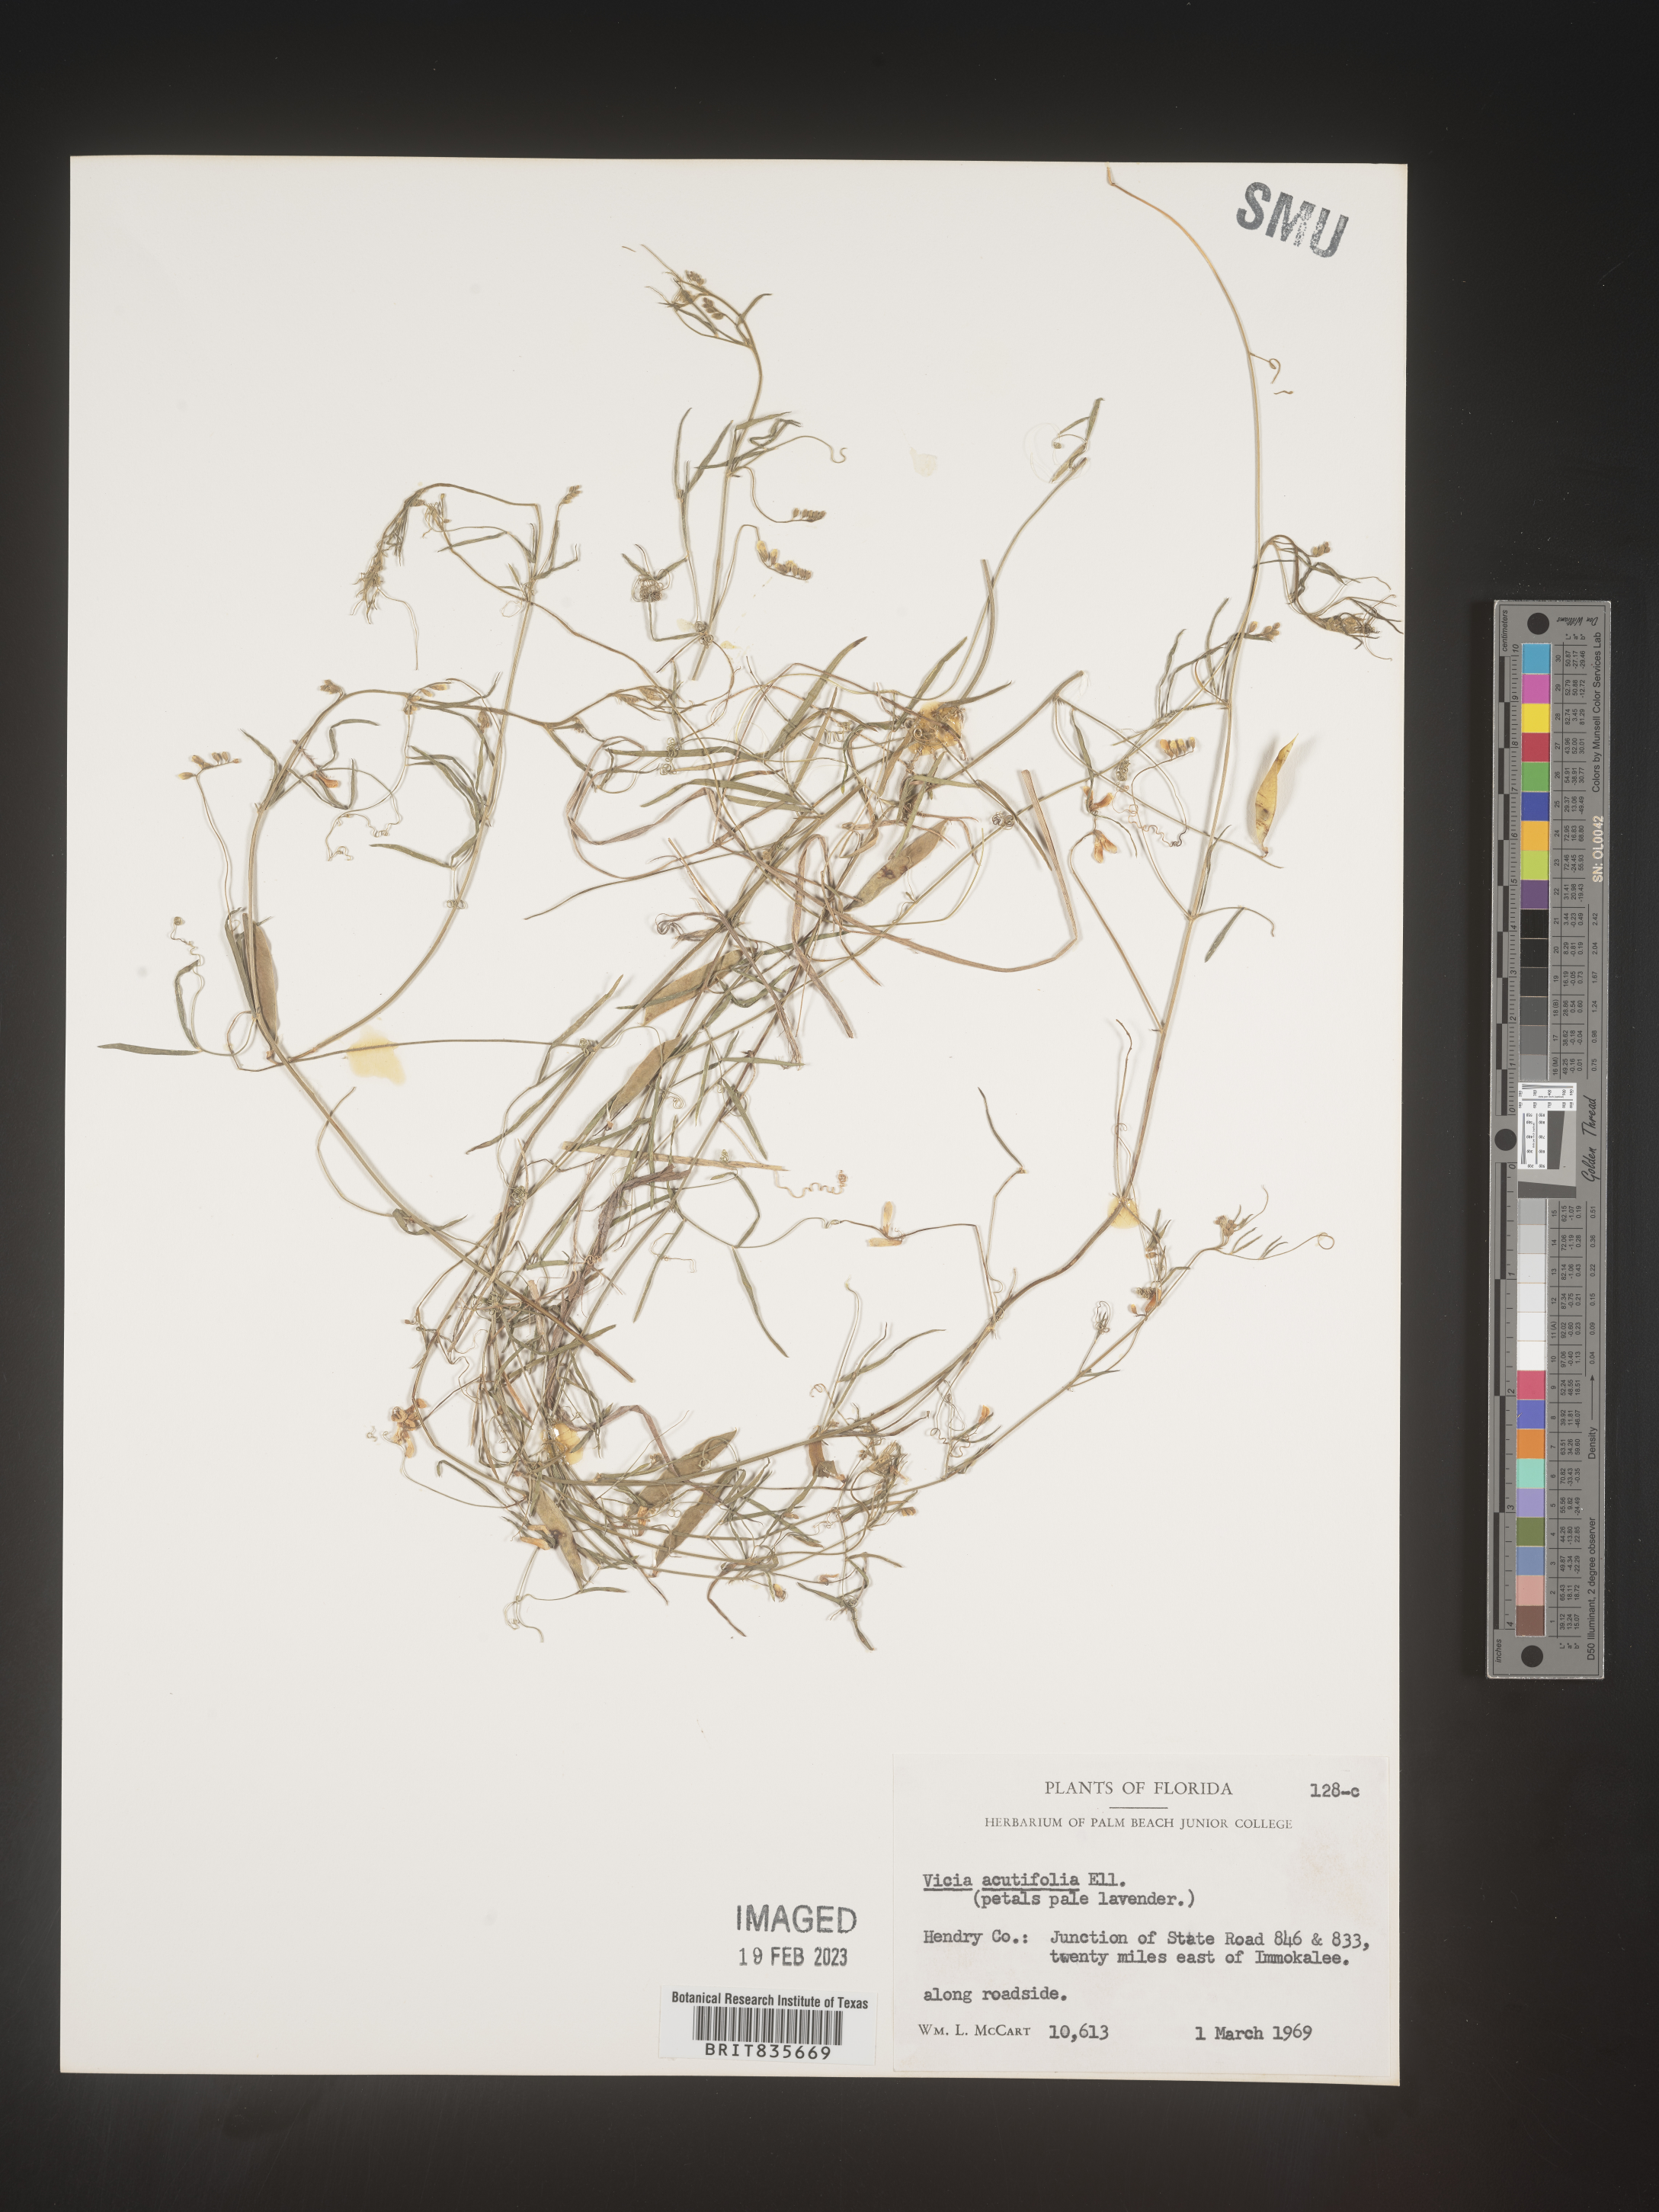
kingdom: Plantae
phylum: Tracheophyta
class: Magnoliopsida
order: Fabales
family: Fabaceae
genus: Vicia
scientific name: Vicia acutifolia
